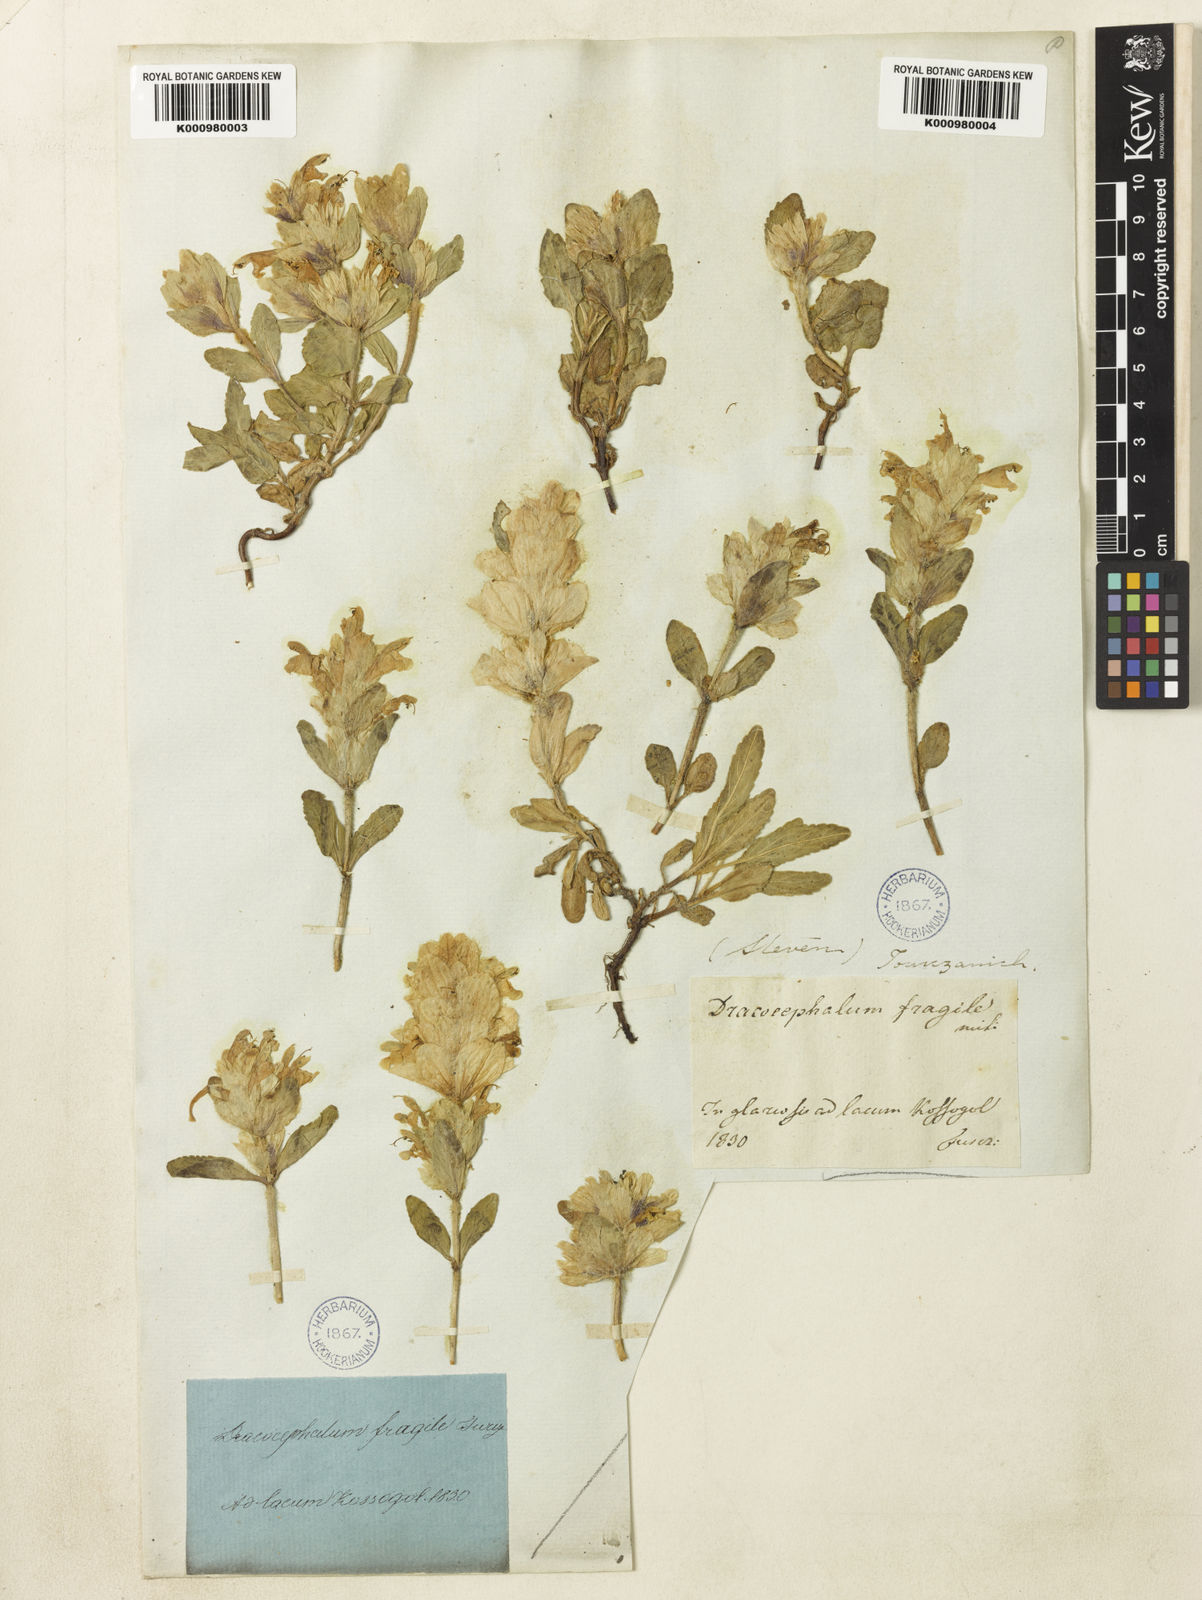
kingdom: Plantae
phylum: Tracheophyta
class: Magnoliopsida
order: Lamiales
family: Lamiaceae
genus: Dracocephalum
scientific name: Dracocephalum
